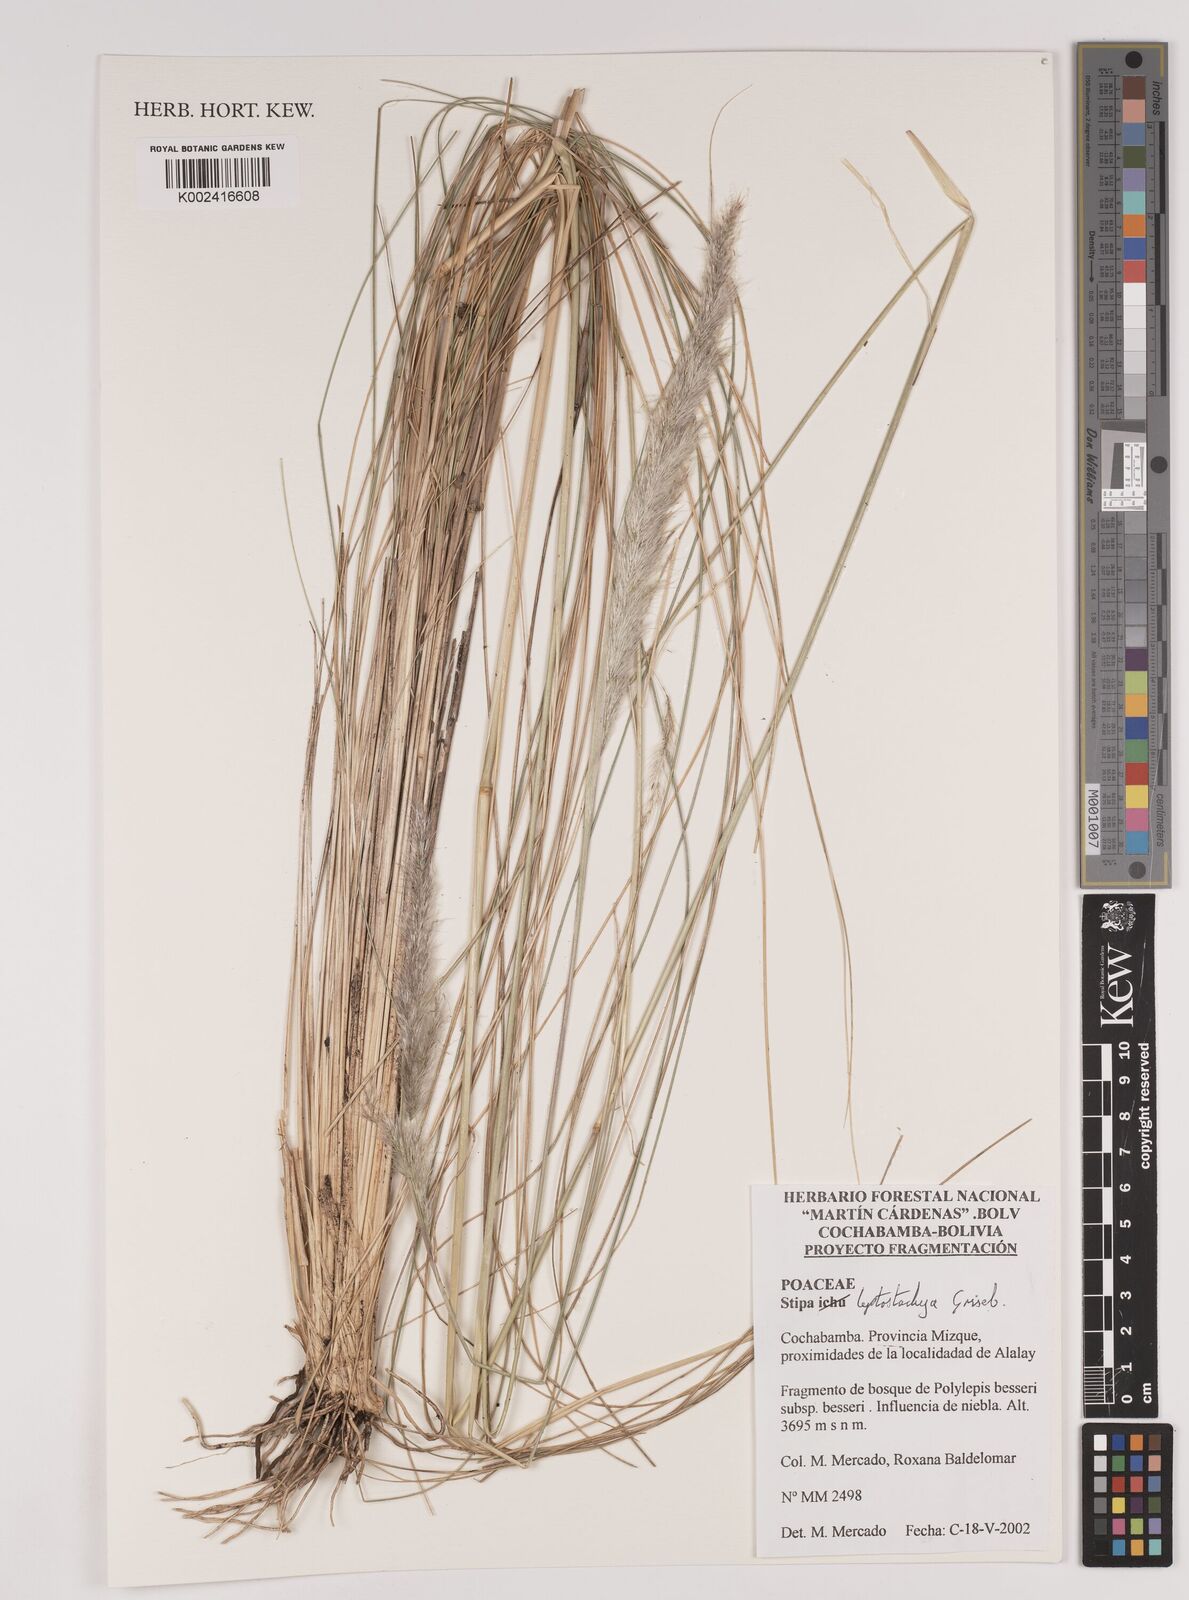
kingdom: Plantae
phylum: Tracheophyta
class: Liliopsida
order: Poales
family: Poaceae
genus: Jarava
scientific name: Jarava leptostachya
